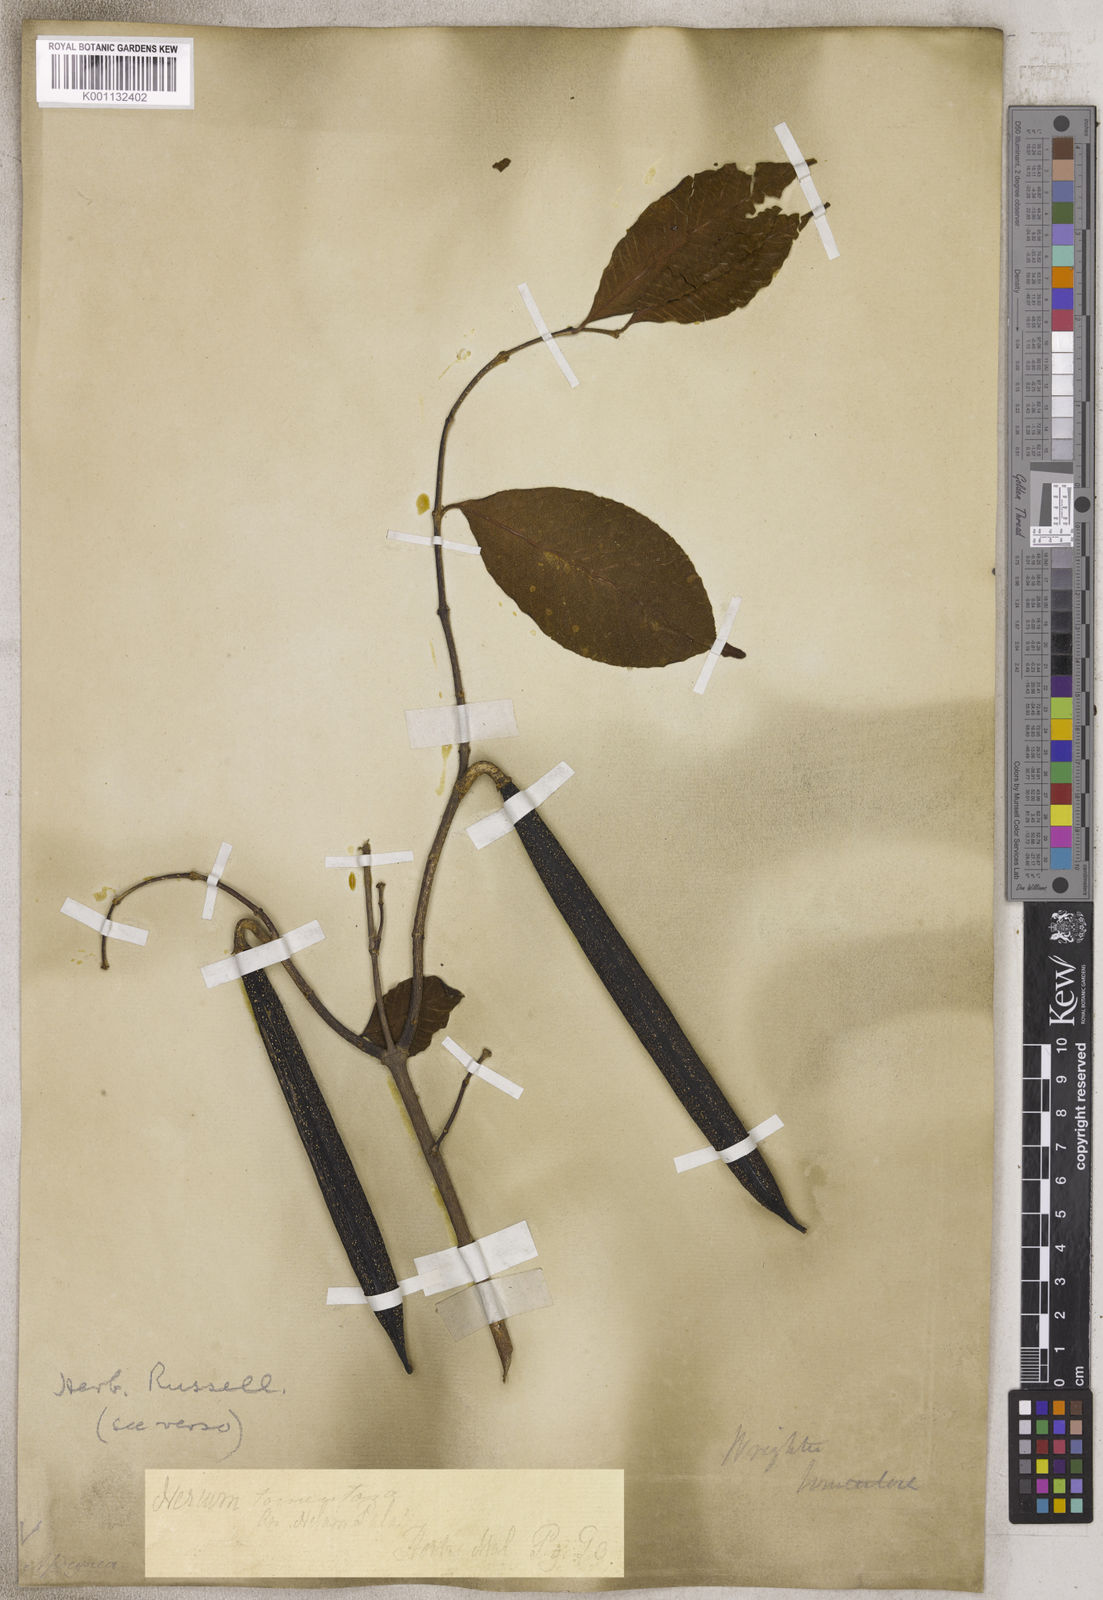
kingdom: Plantae
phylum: Tracheophyta
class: Magnoliopsida
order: Gentianales
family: Apocynaceae
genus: Wrightia
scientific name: Wrightia
